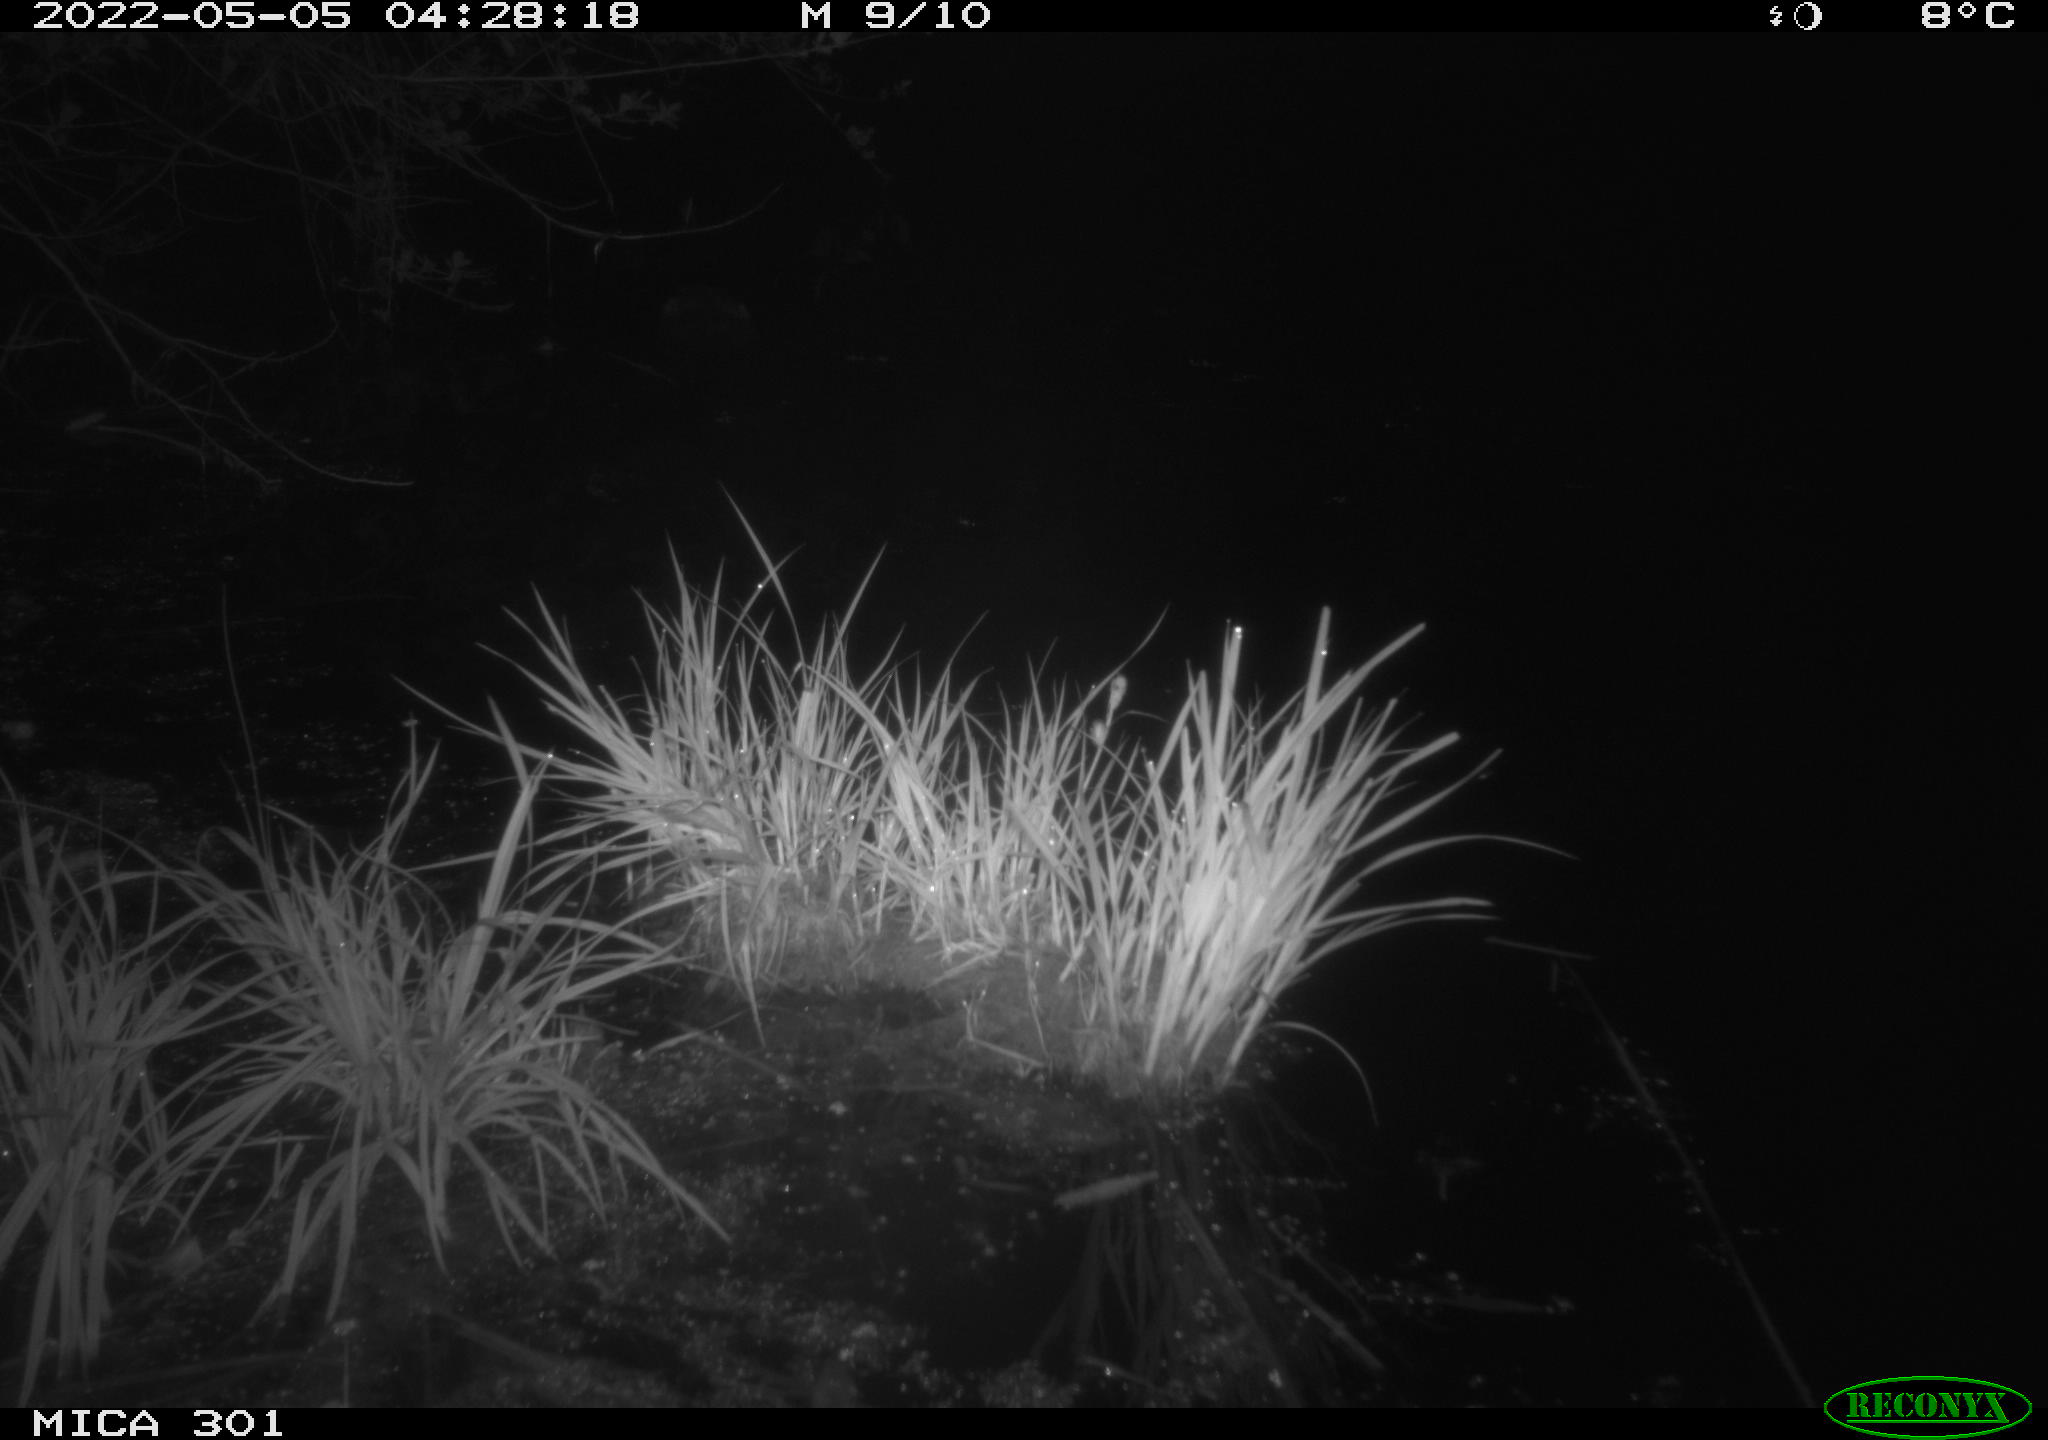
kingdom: Animalia
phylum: Chordata
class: Mammalia
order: Rodentia
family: Castoridae
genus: Castor
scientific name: Castor fiber
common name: Eurasian beaver
